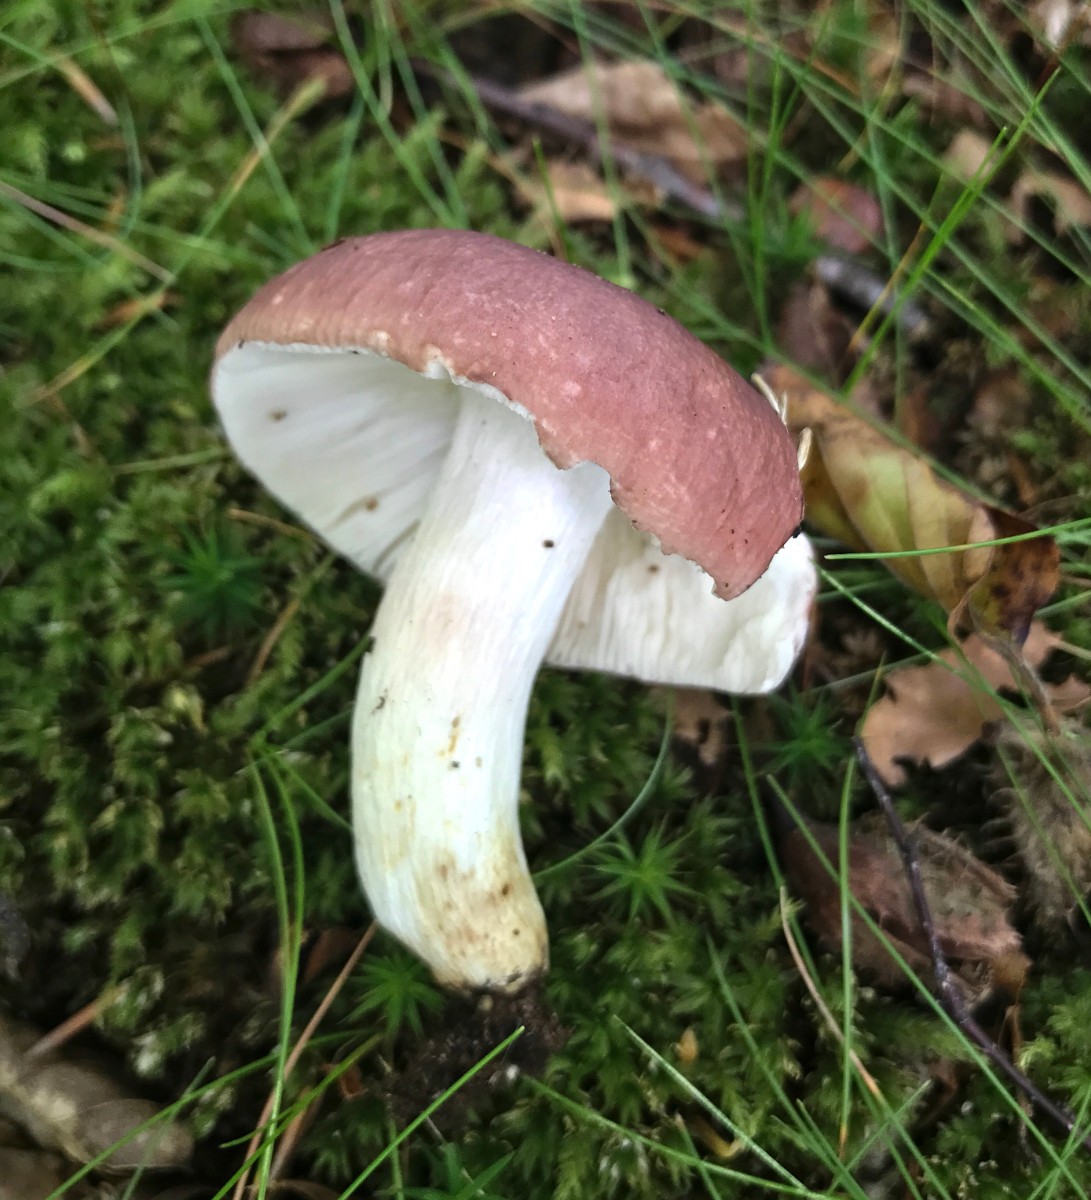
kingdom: Fungi
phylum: Basidiomycota
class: Agaricomycetes
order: Russulales
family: Russulaceae
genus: Russula
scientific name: Russula vesca
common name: spiselig skørhat
